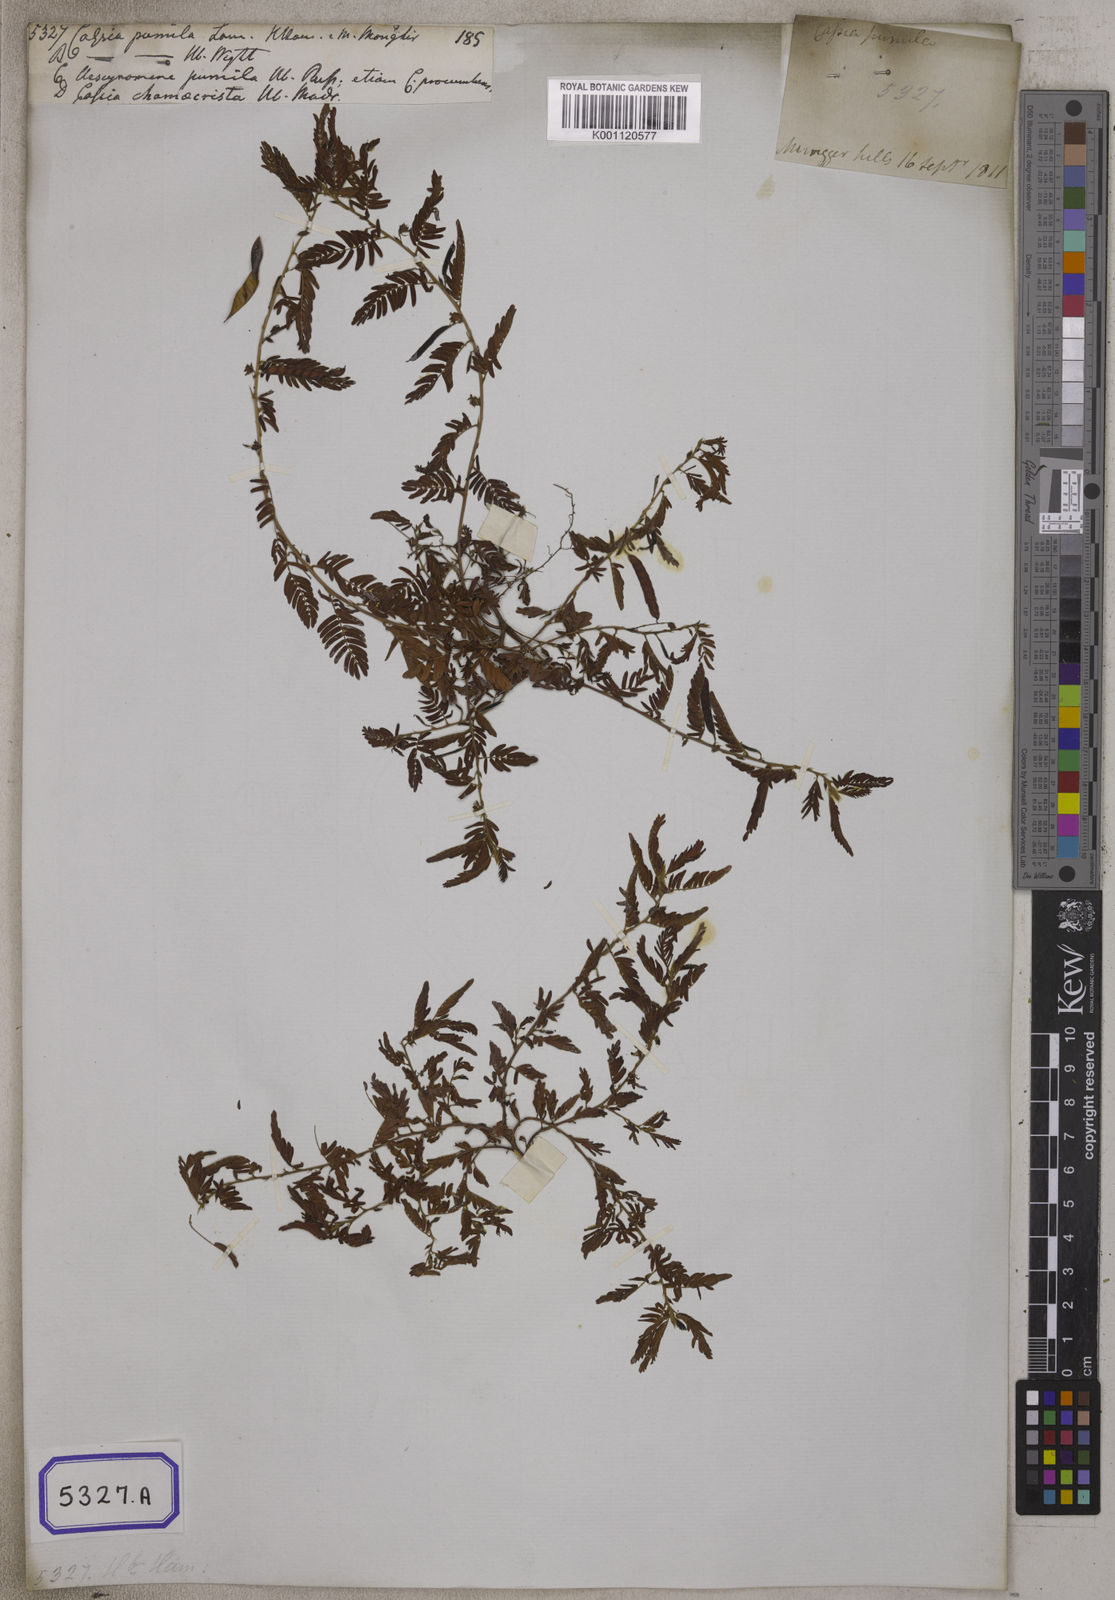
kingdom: Plantae
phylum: Tracheophyta
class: Magnoliopsida
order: Fabales
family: Fabaceae
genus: Chamaecrista
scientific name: Chamaecrista pumila
